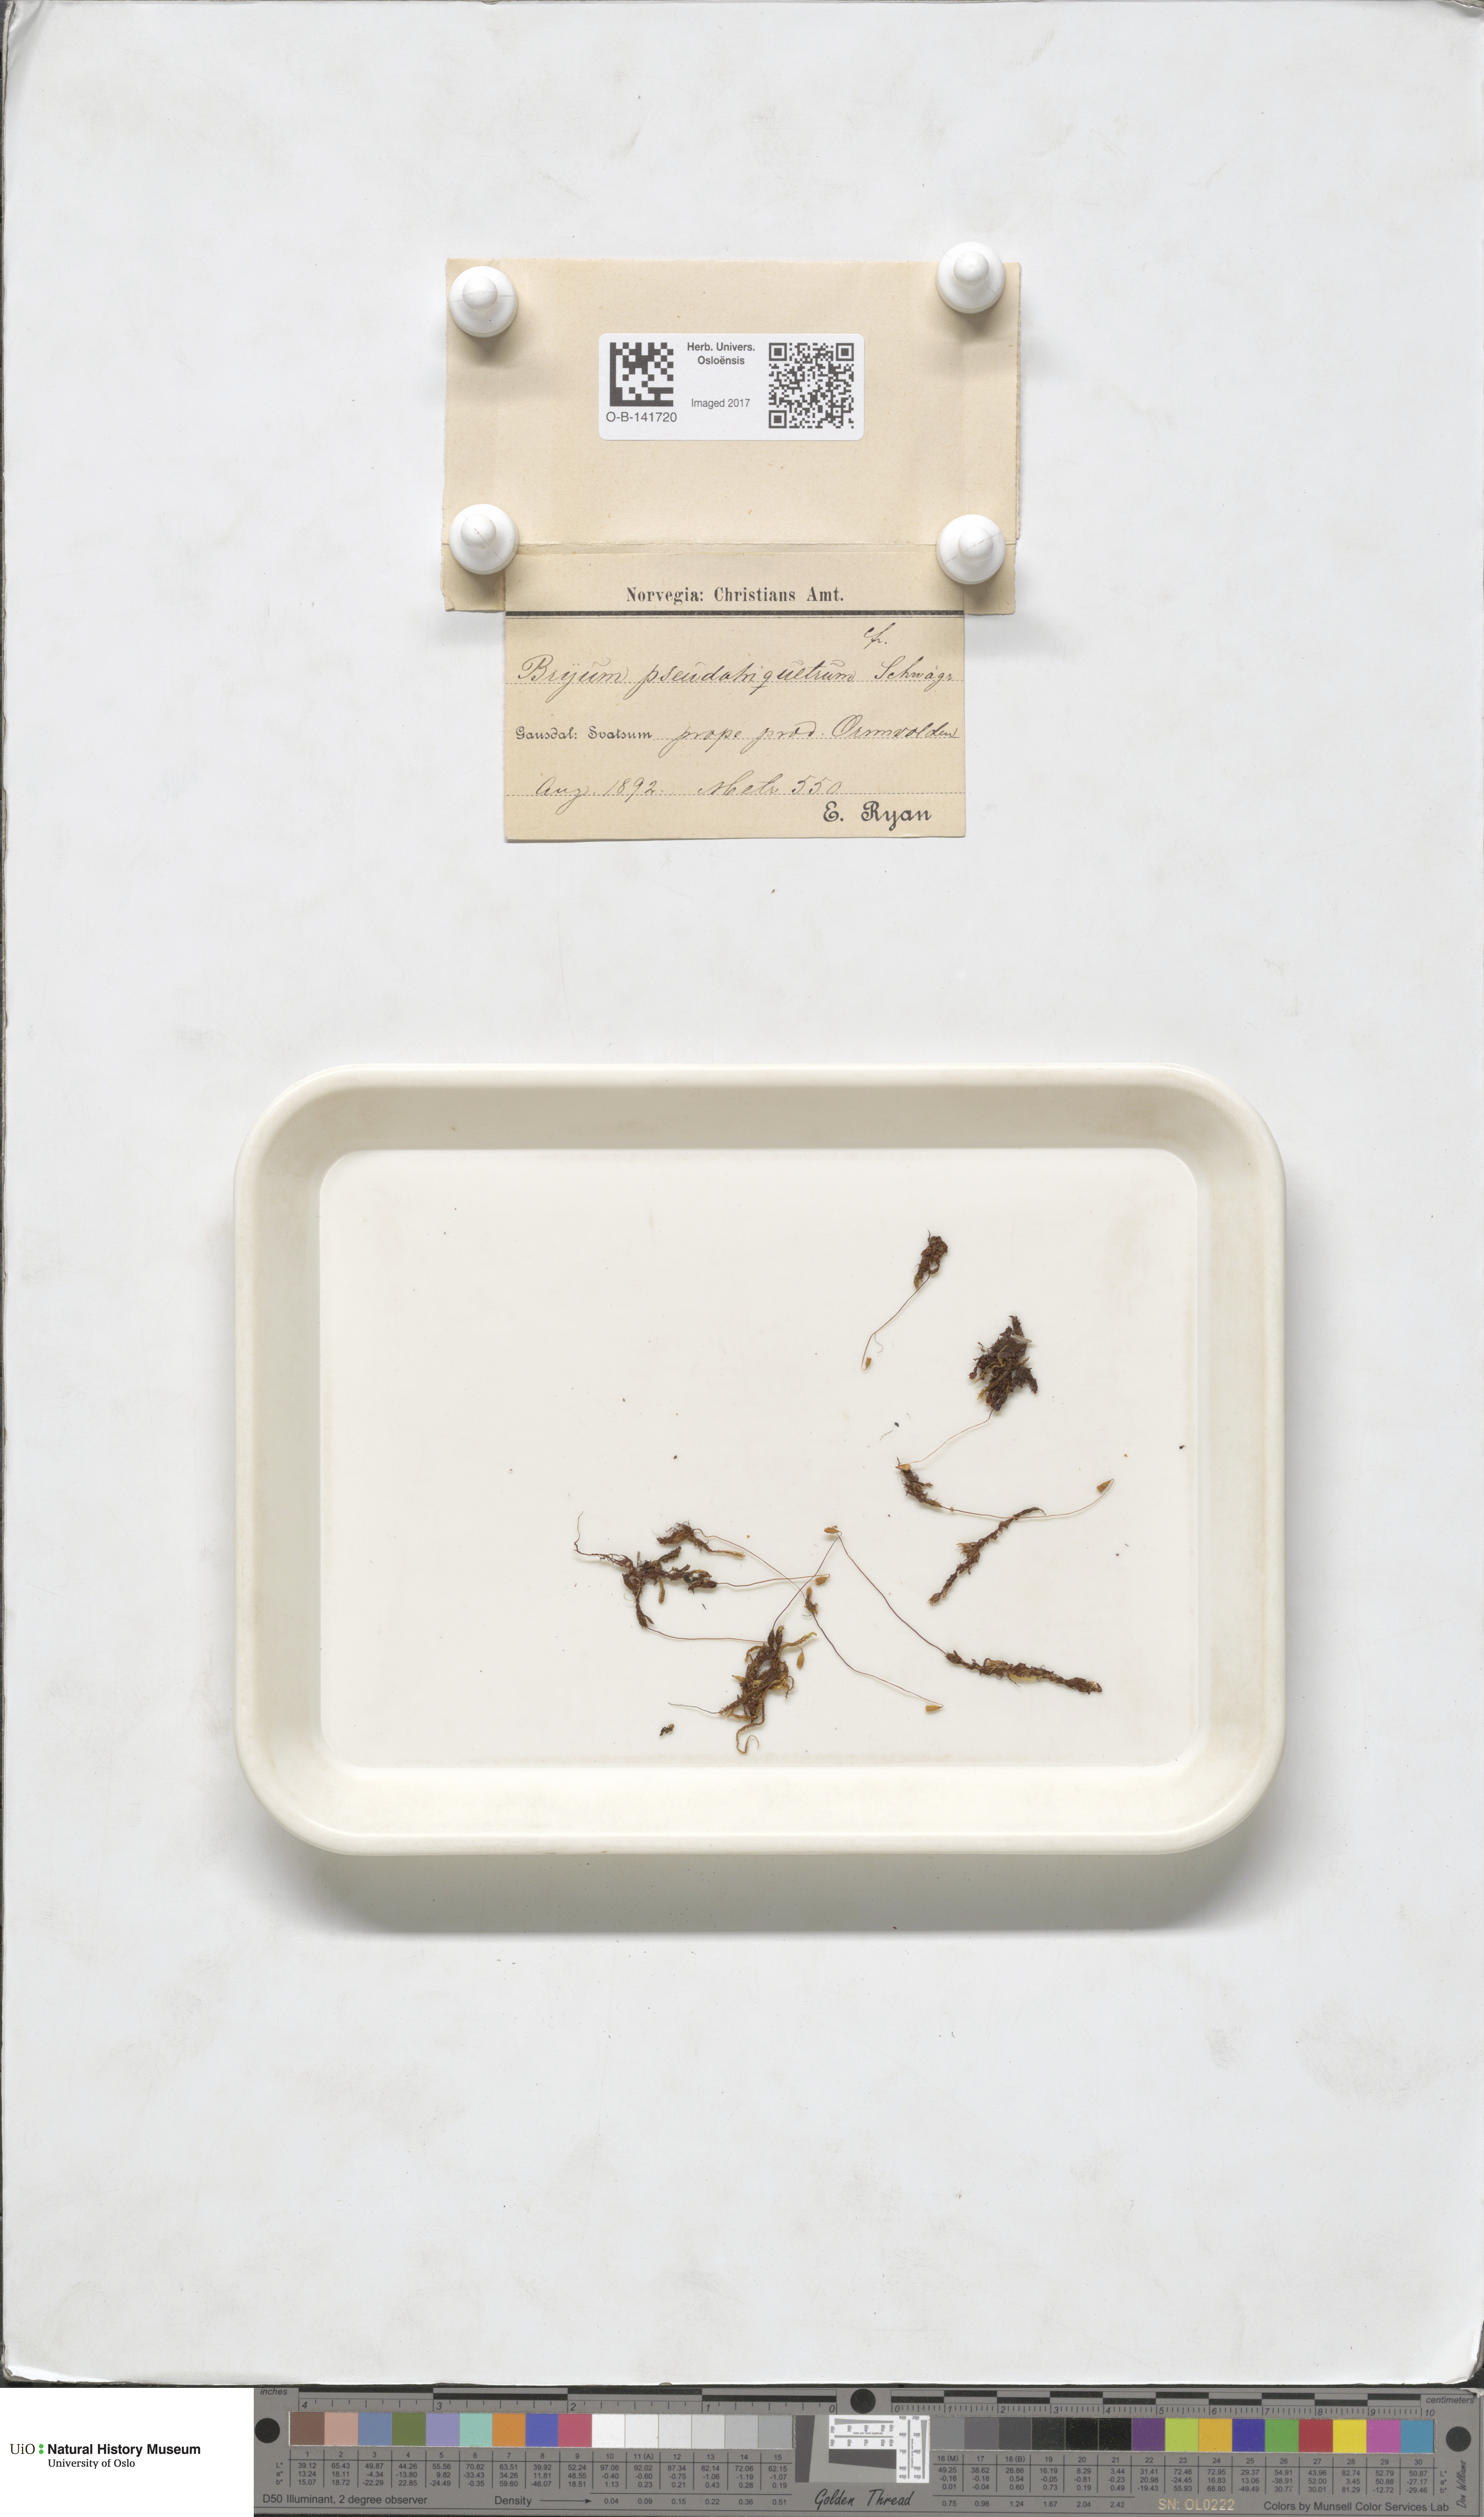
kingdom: Plantae
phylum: Bryophyta
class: Bryopsida
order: Bryales
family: Bryaceae
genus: Ptychostomum
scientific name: Ptychostomum pseudotriquetrum
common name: Long-leaved thread moss
